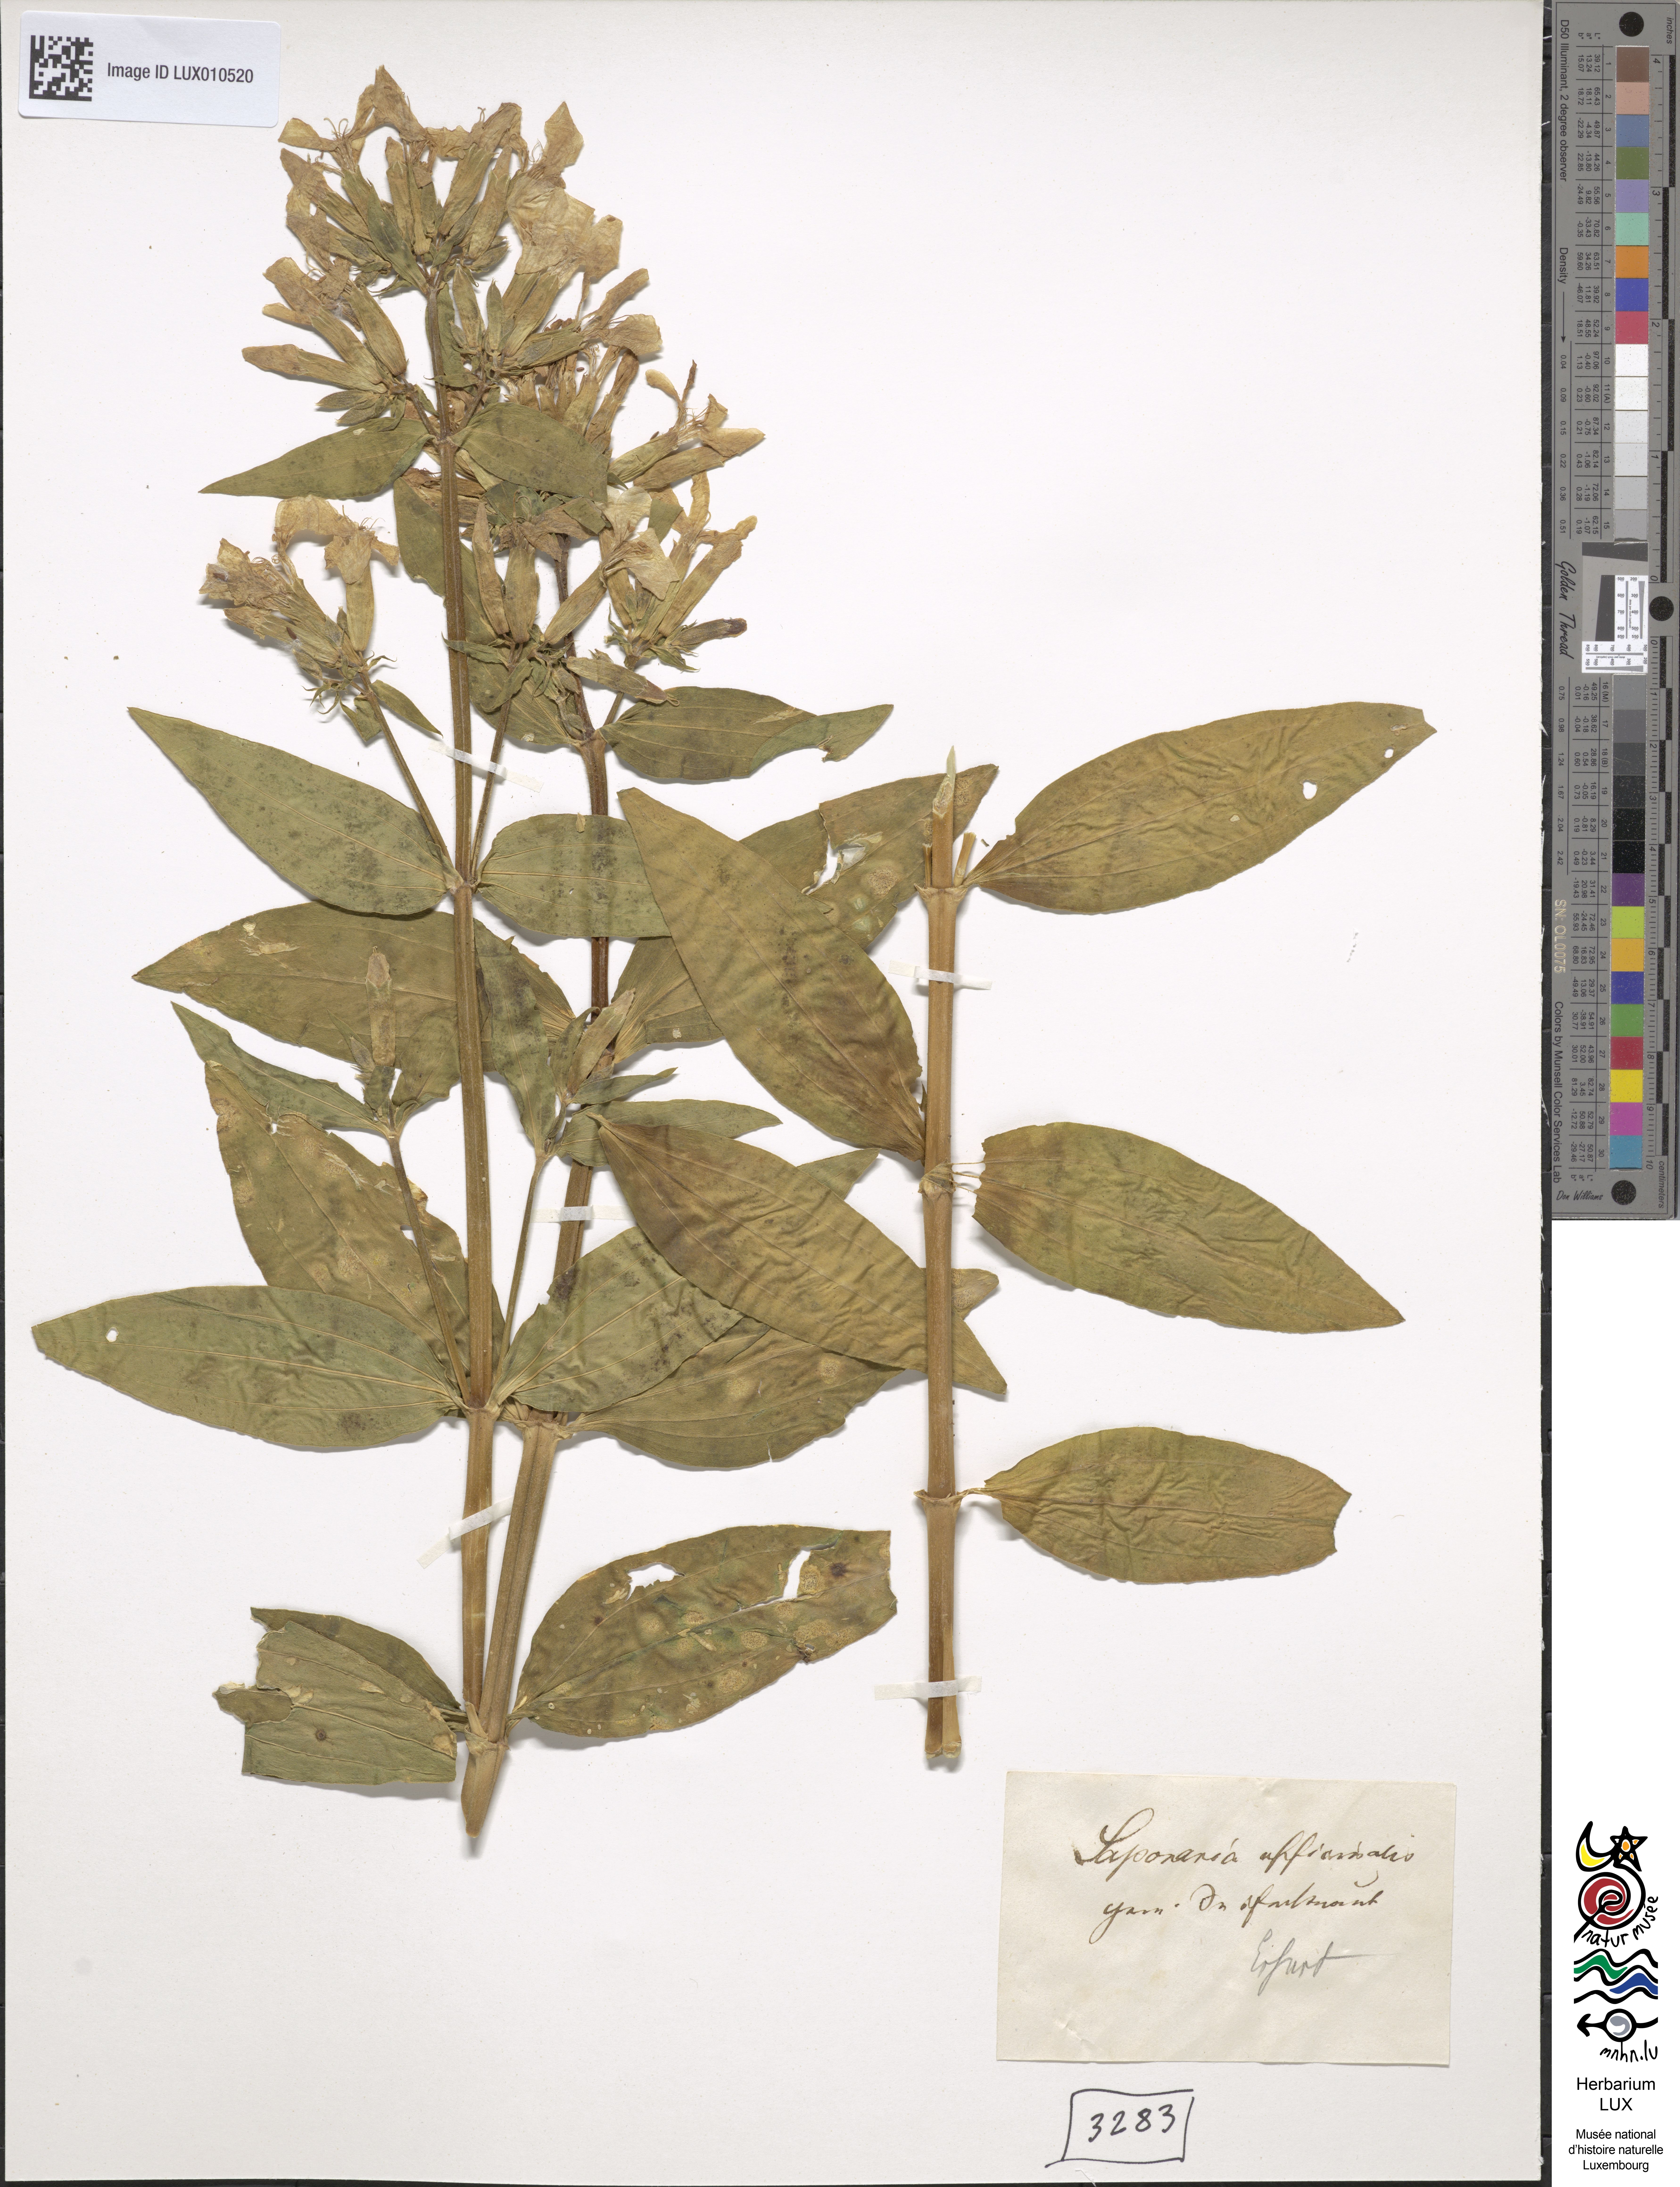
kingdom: Plantae
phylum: Tracheophyta
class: Magnoliopsida
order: Caryophyllales
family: Caryophyllaceae
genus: Saponaria
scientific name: Saponaria officinalis
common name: Soapwort
